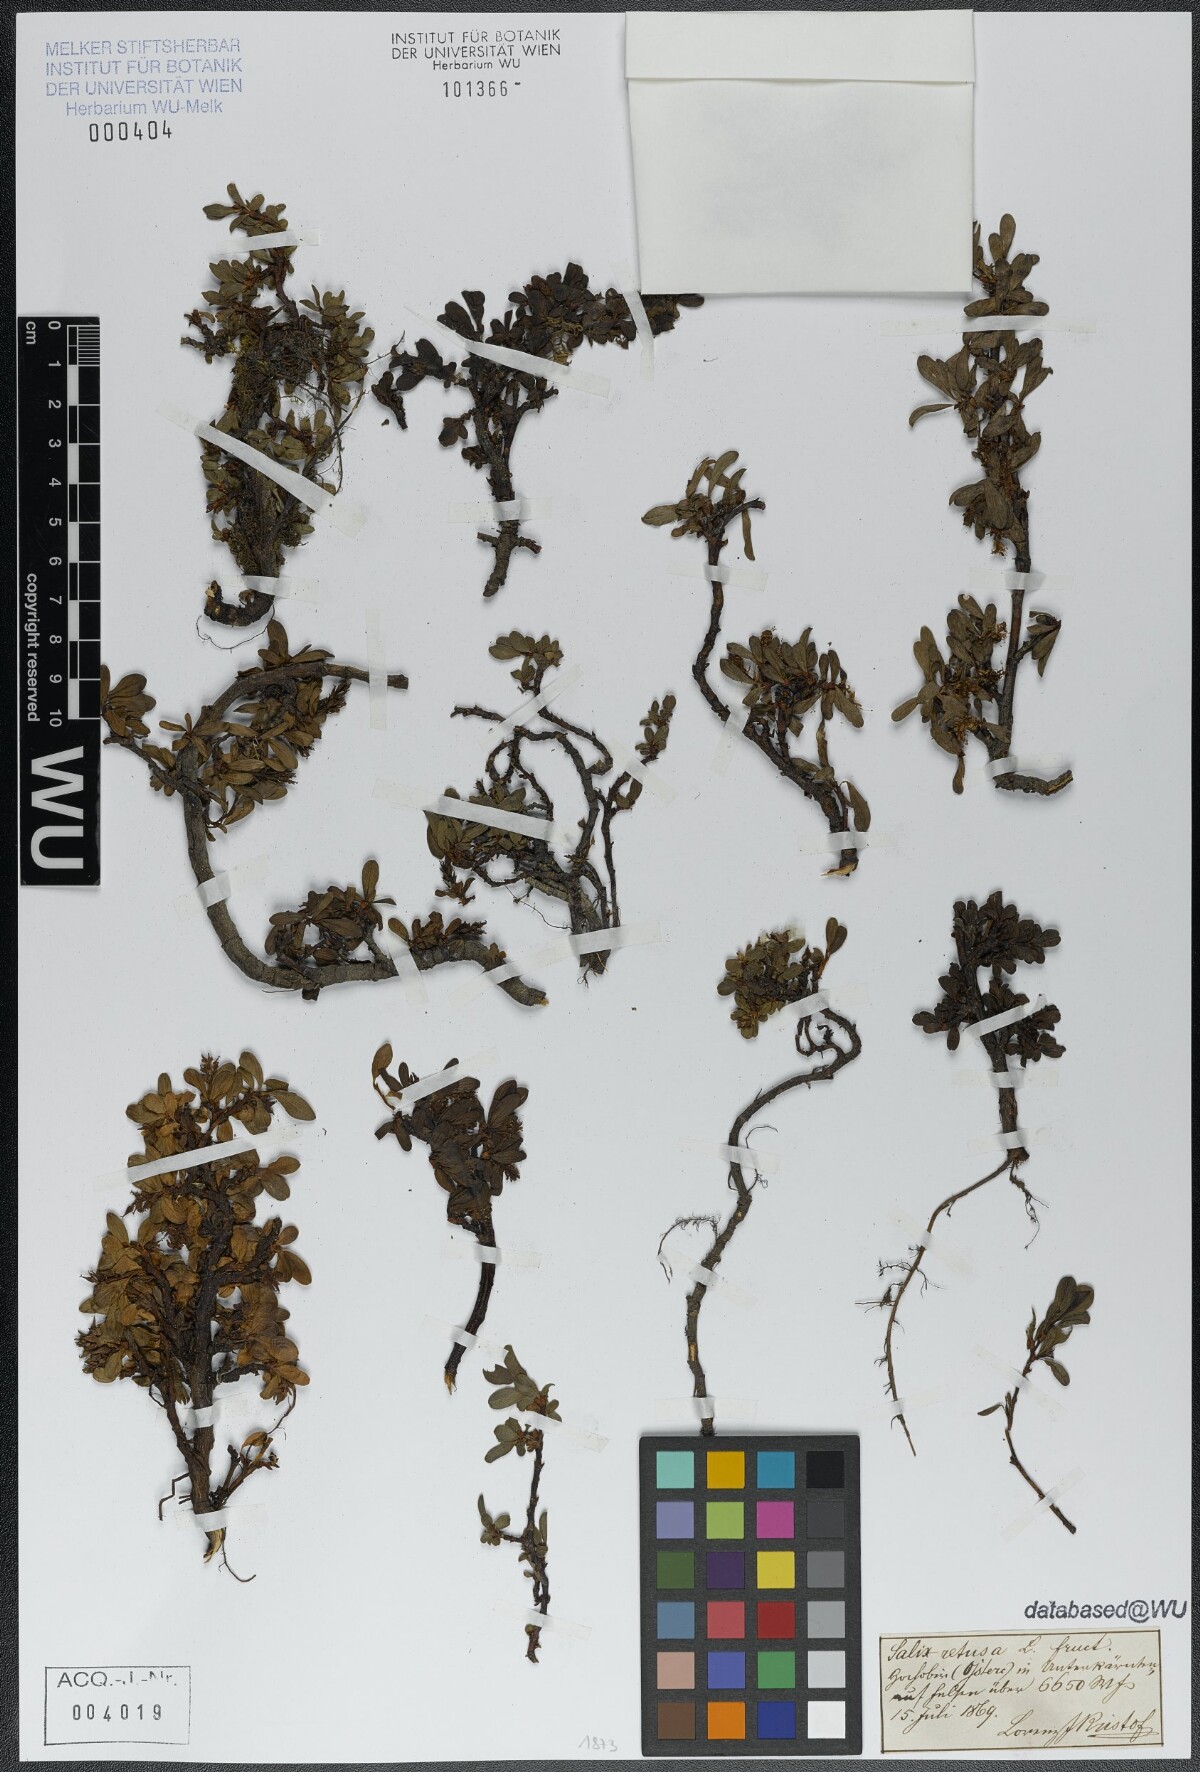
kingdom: Plantae
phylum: Tracheophyta
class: Magnoliopsida
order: Malpighiales
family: Salicaceae
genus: Salix
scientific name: Salix retusa
